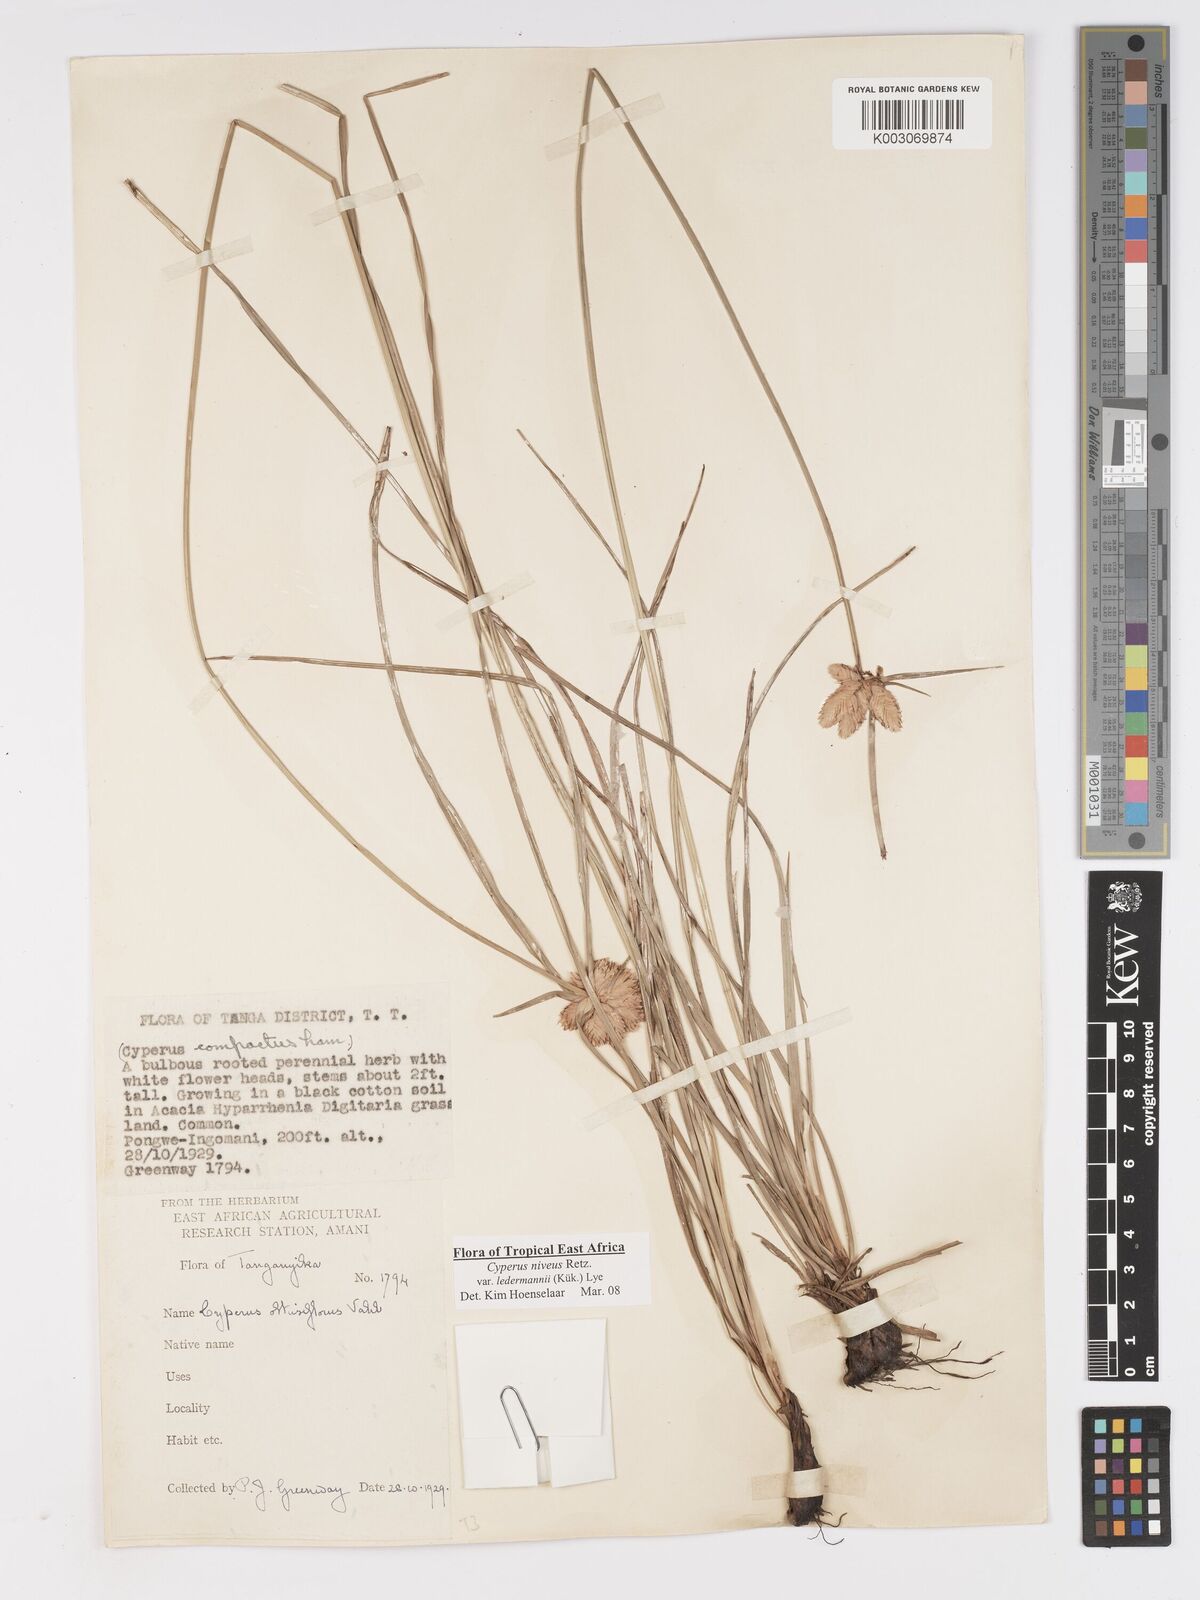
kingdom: Plantae
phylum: Tracheophyta
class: Liliopsida
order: Poales
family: Cyperaceae
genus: Cyperus
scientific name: Cyperus niveus
